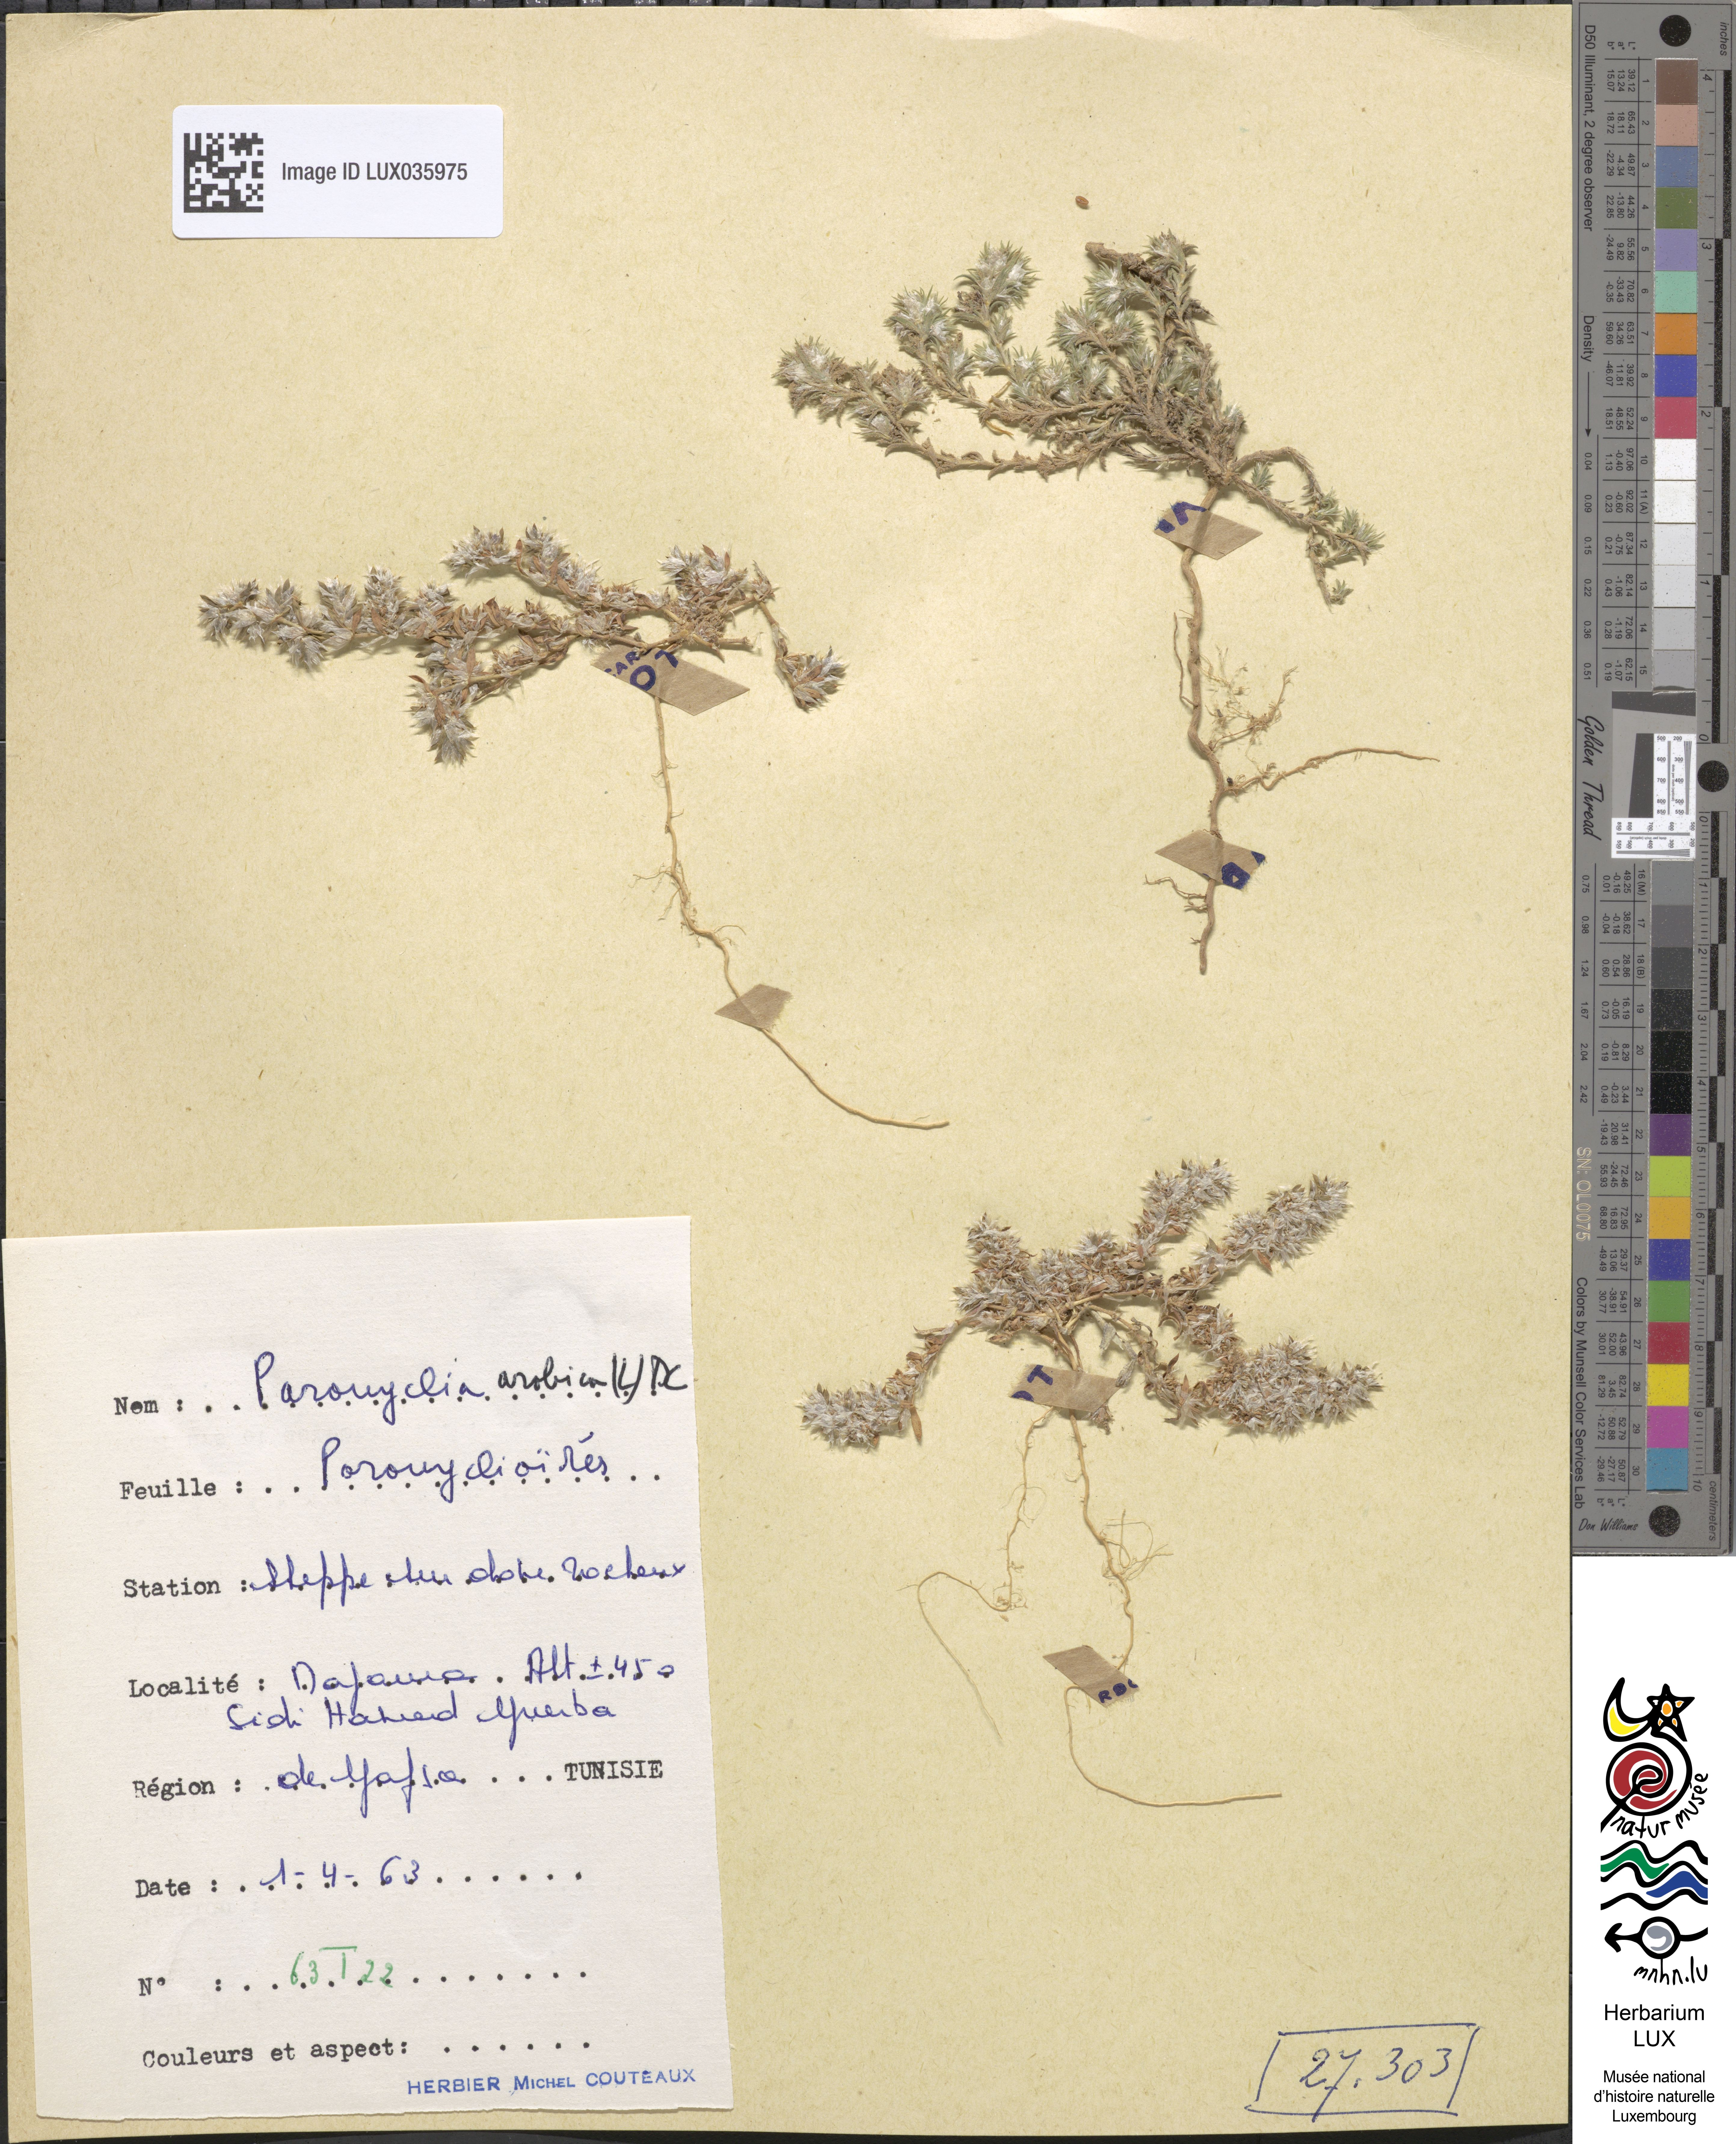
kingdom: Plantae
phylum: Tracheophyta
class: Magnoliopsida
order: Caryophyllales
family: Caryophyllaceae
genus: Paronychia
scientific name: Paronychia arabica
